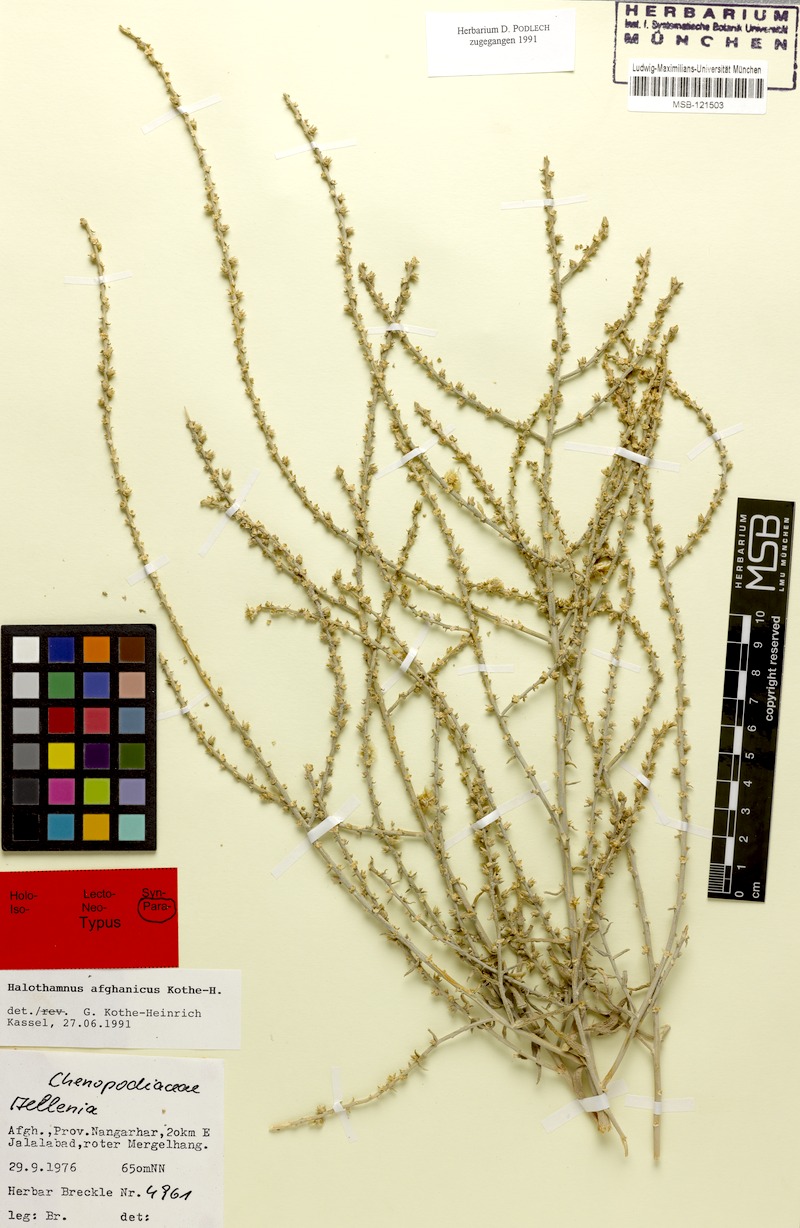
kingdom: Plantae
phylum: Tracheophyta
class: Magnoliopsida
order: Caryophyllales
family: Amaranthaceae
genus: Halothamnus
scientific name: Halothamnus afghanicus
